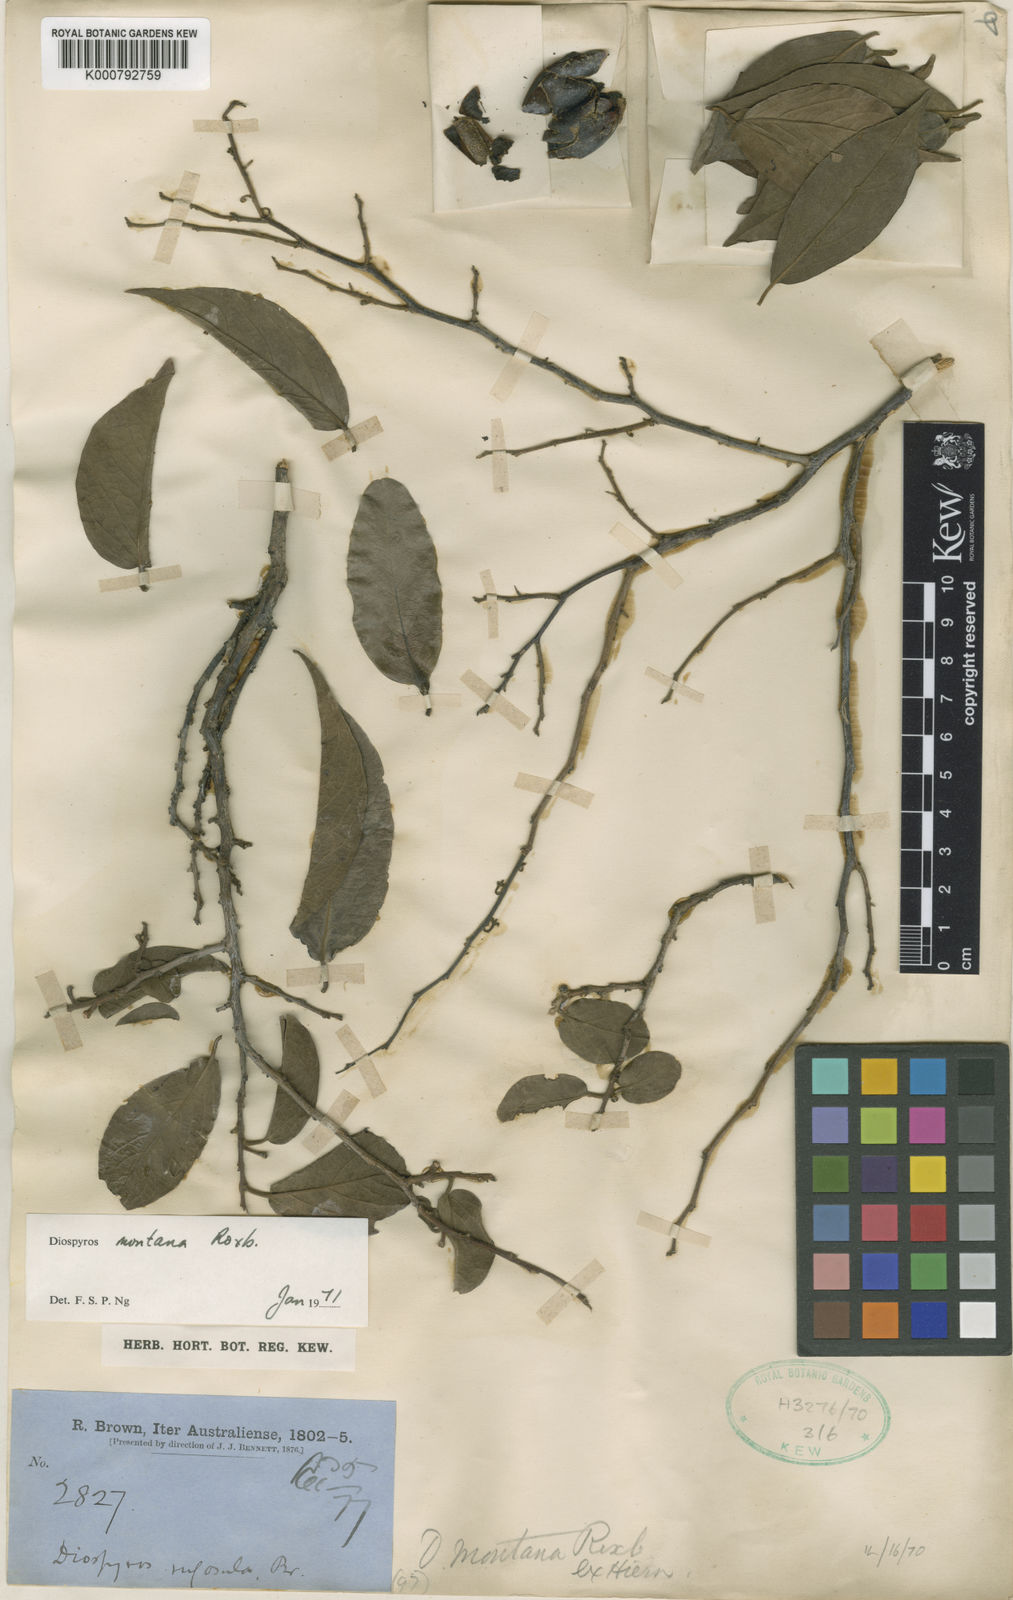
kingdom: Plantae
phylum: Tracheophyta
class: Magnoliopsida
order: Ericales
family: Ebenaceae
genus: Diospyros
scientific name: Diospyros rugosula
